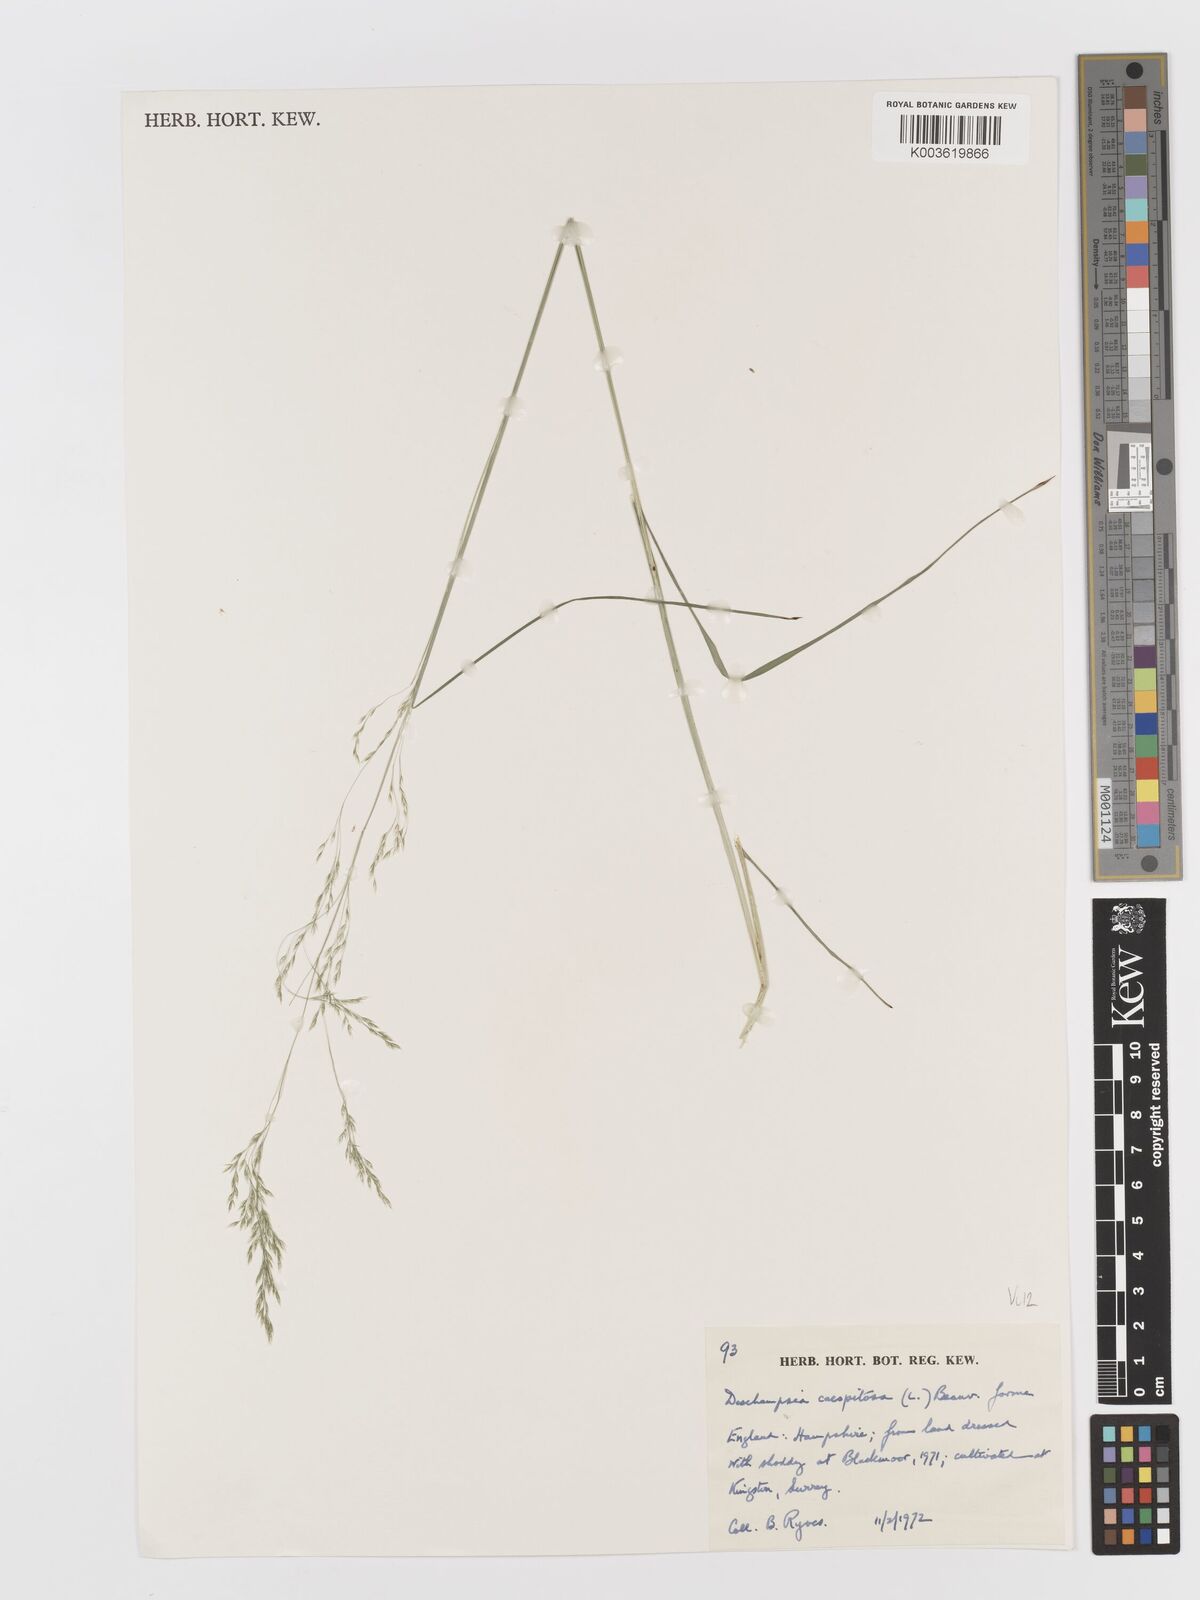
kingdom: Plantae
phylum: Tracheophyta
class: Liliopsida
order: Poales
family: Poaceae
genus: Deschampsia
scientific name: Deschampsia cespitosa
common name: Tufted hair-grass
